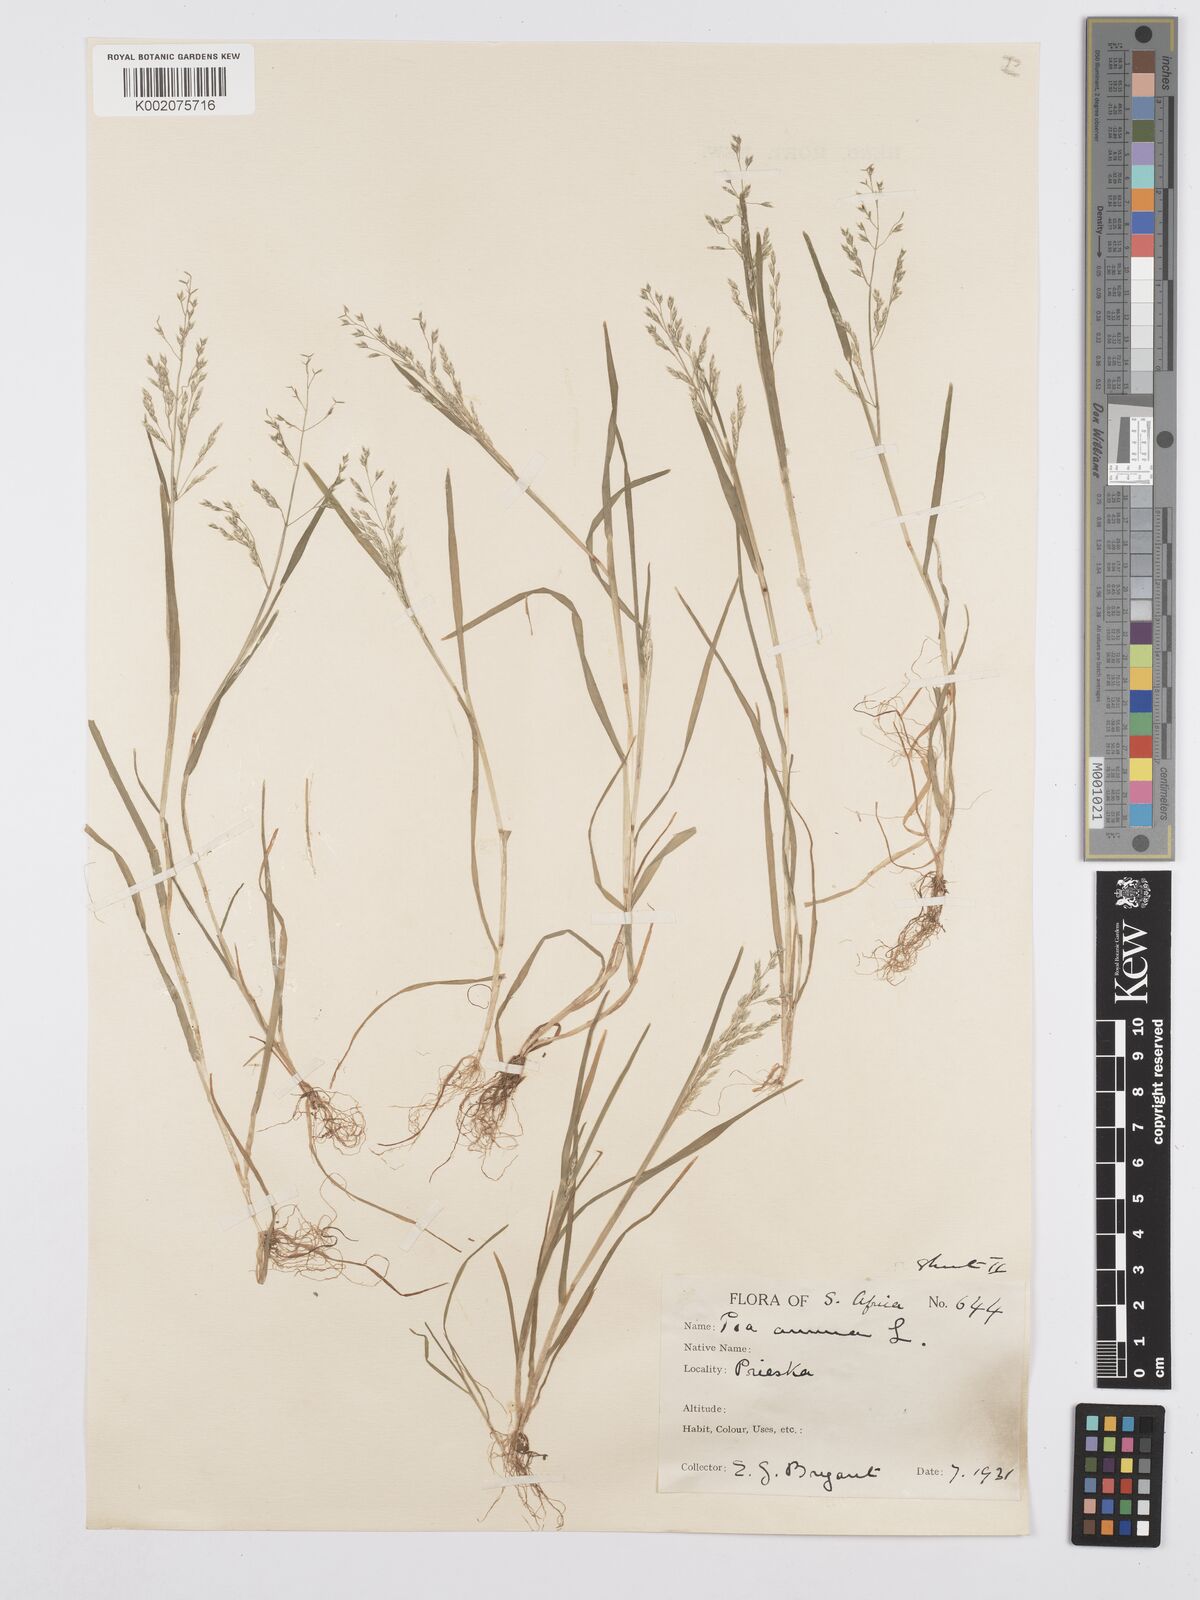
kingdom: Plantae
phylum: Tracheophyta
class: Liliopsida
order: Poales
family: Poaceae
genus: Poa
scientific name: Poa annua
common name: Annual bluegrass
